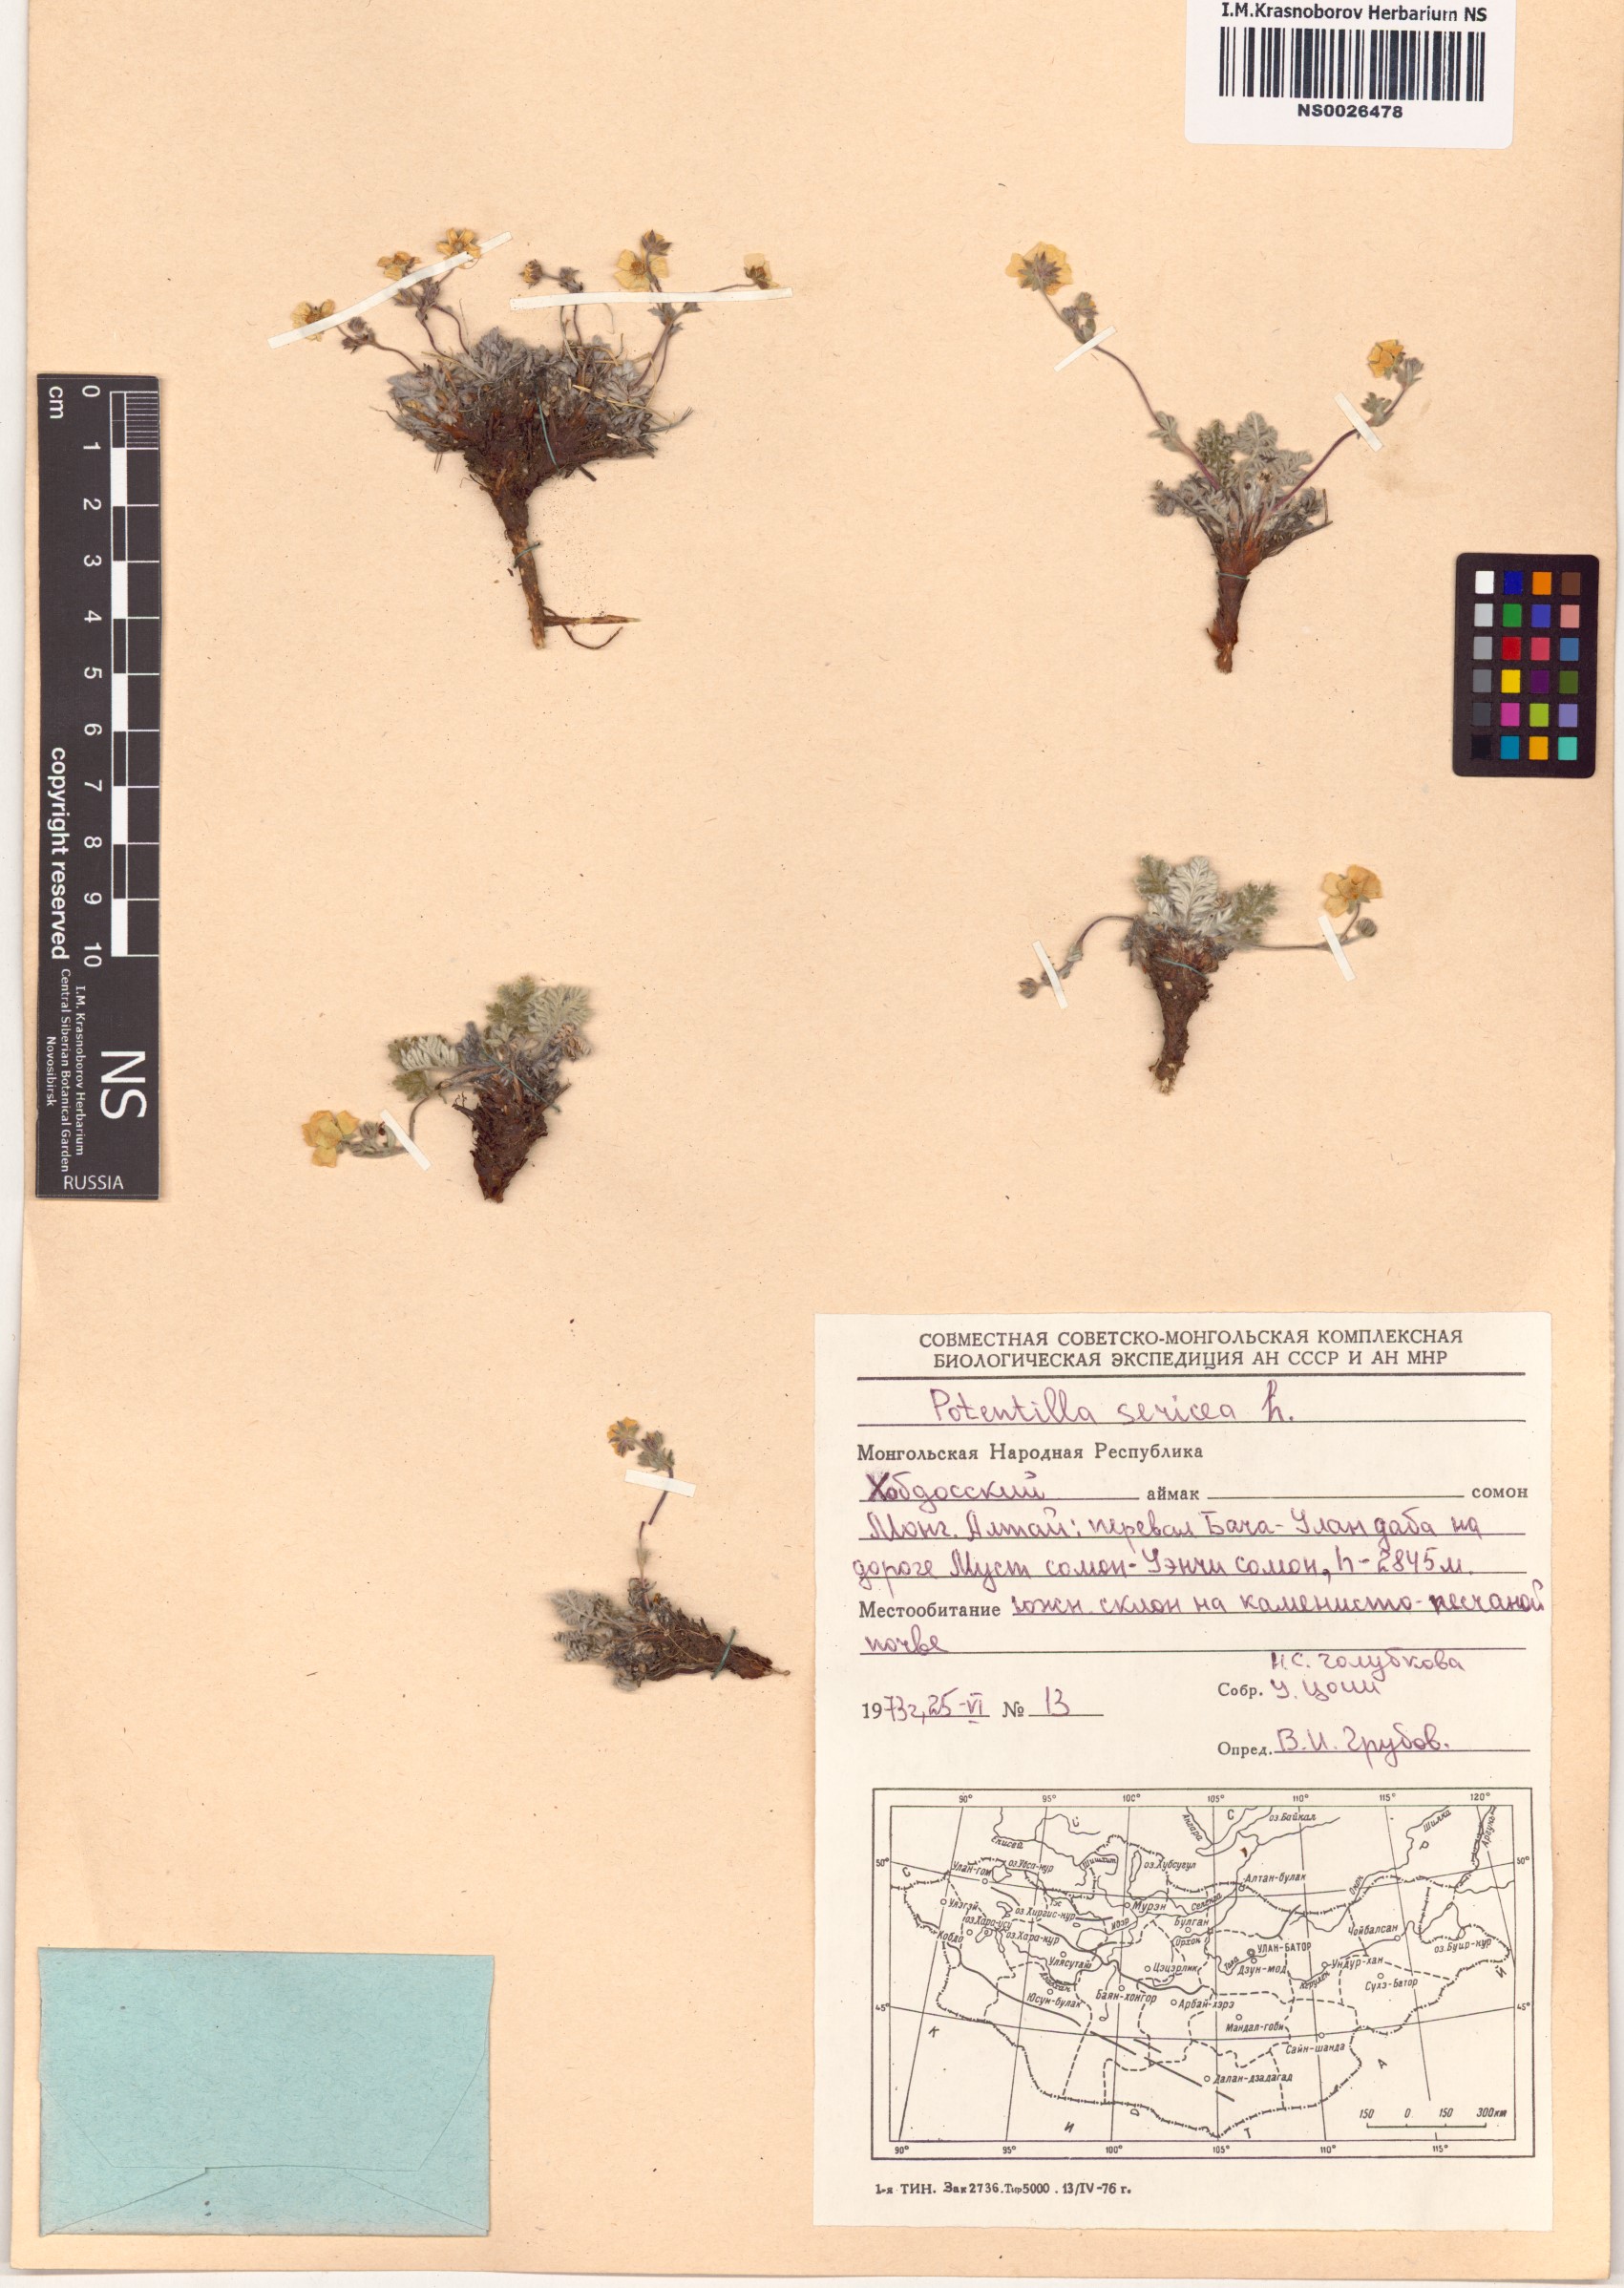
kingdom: Plantae
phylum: Tracheophyta
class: Magnoliopsida
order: Rosales
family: Rosaceae
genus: Potentilla
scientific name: Potentilla sericea
